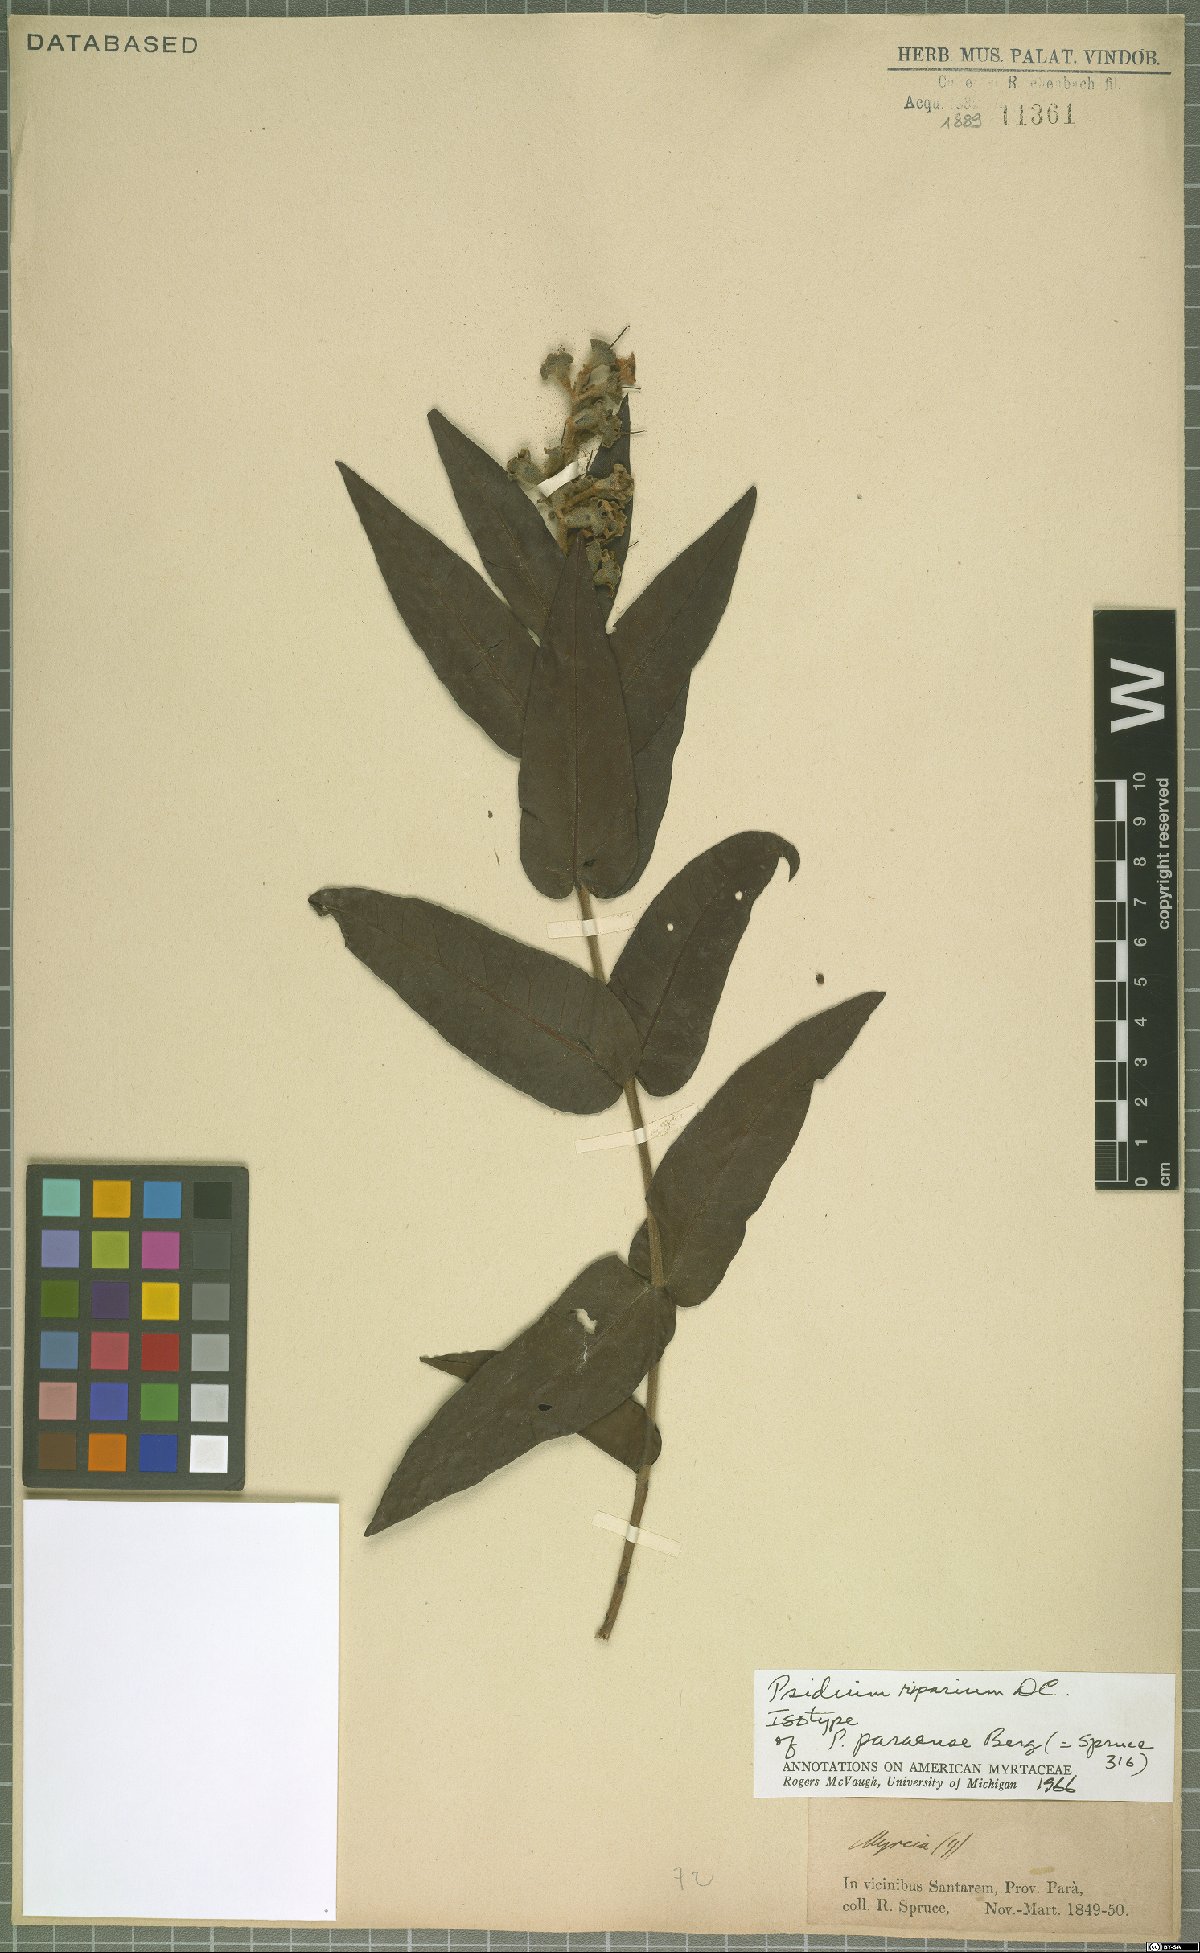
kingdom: Plantae
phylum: Tracheophyta
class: Magnoliopsida
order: Myrtales
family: Myrtaceae
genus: Psidium
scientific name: Psidium riparium
